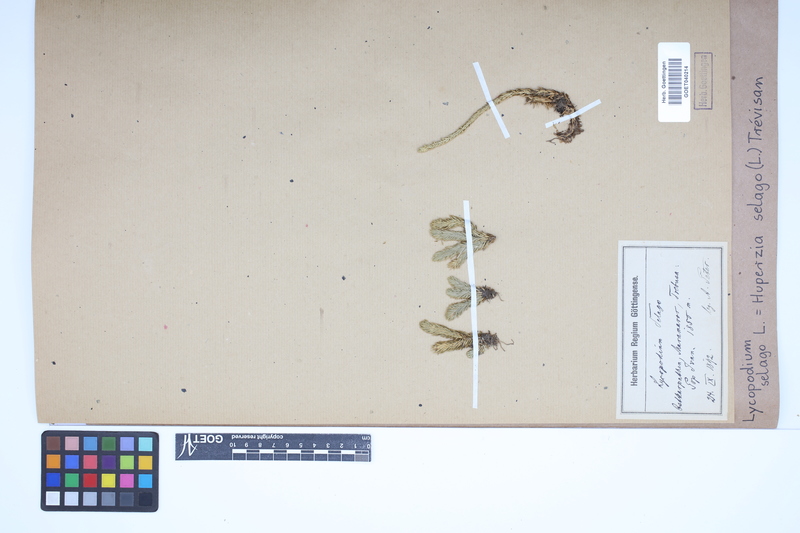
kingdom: Plantae
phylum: Tracheophyta
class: Lycopodiopsida
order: Lycopodiales
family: Lycopodiaceae
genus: Huperzia
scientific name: Huperzia selago
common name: Northern firmoss
